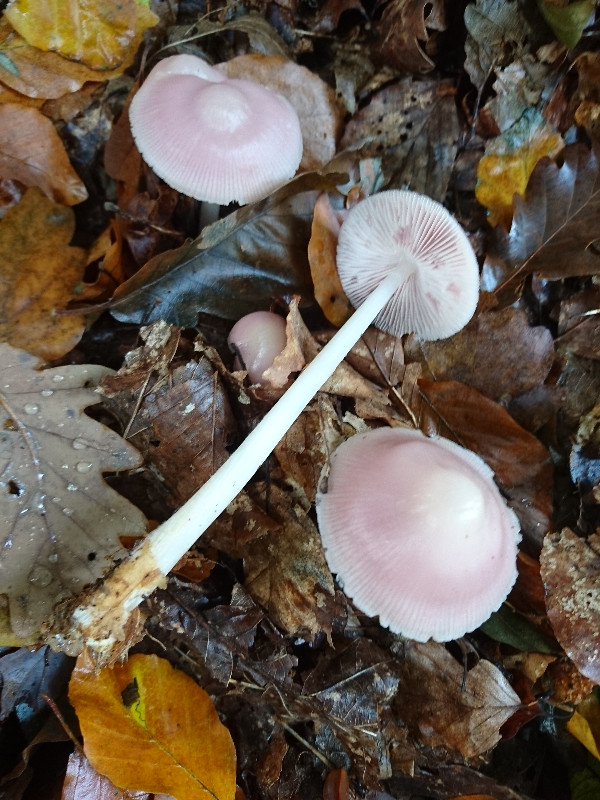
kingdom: Fungi
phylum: Basidiomycota
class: Agaricomycetes
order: Agaricales
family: Mycenaceae
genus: Mycena
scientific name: Mycena rosea
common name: rosa huesvamp
